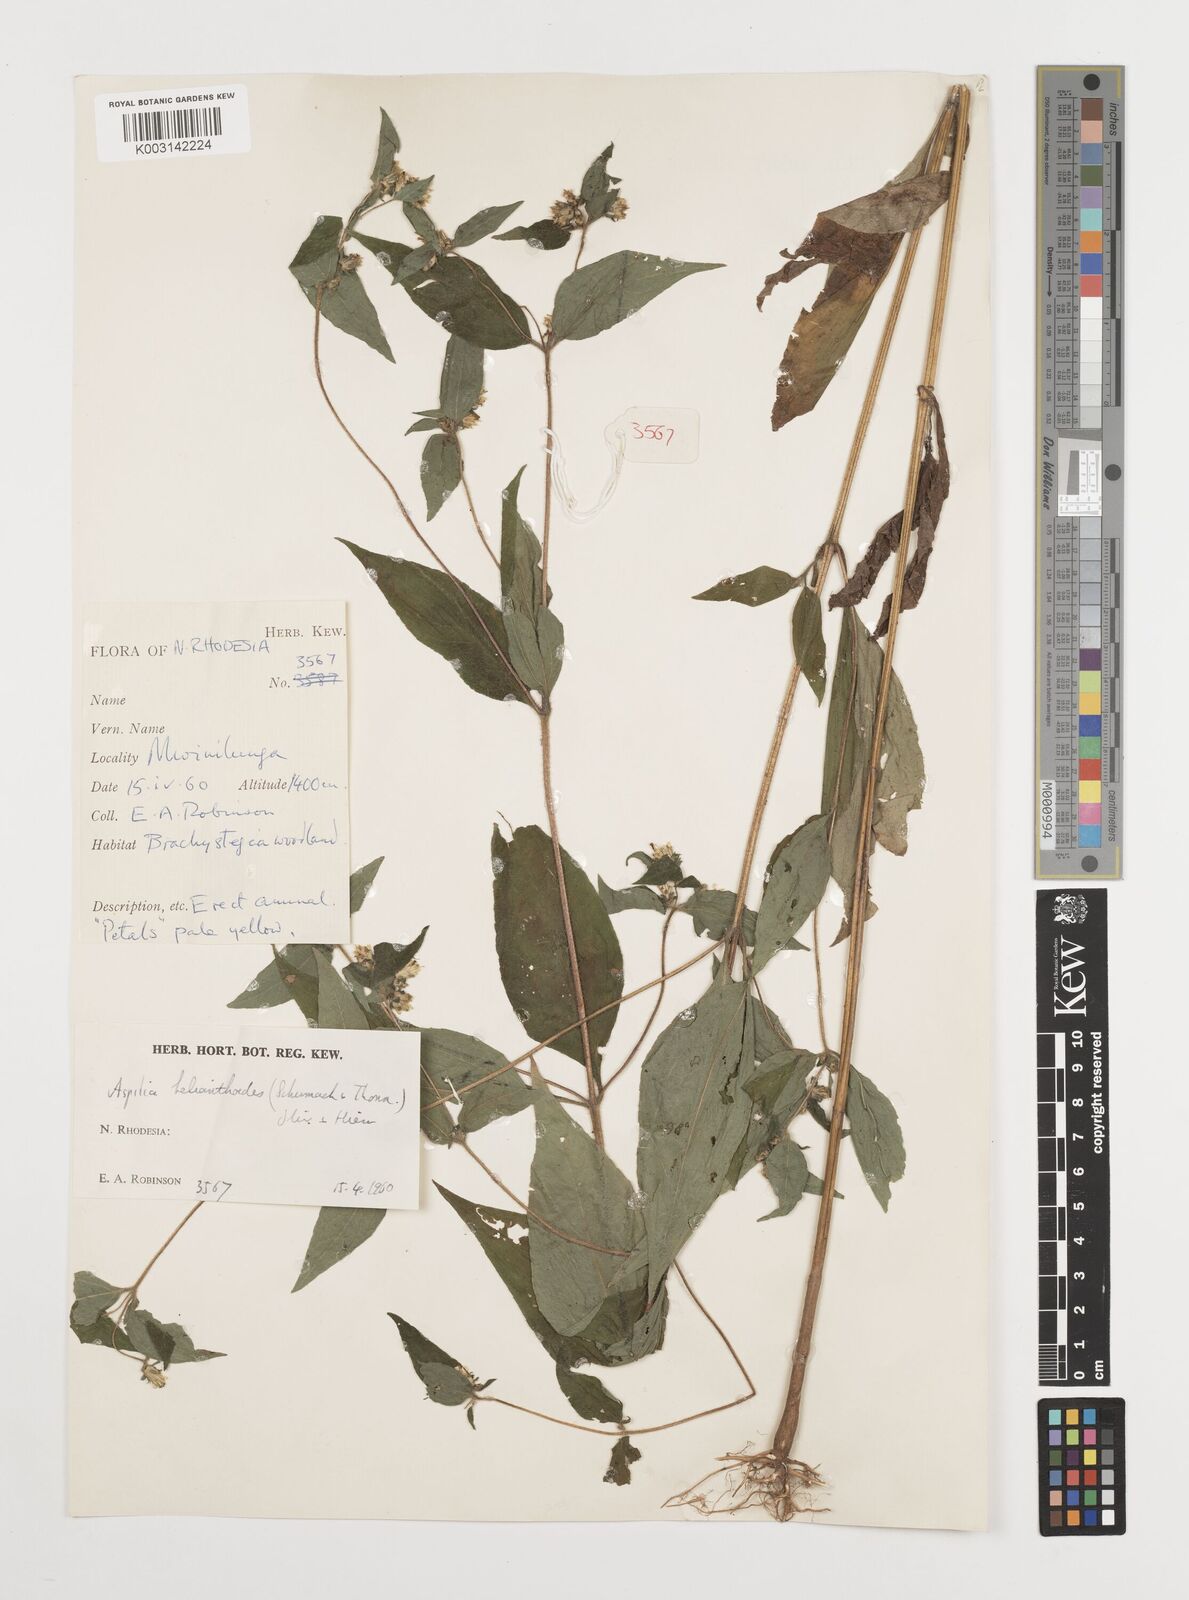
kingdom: Plantae
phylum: Tracheophyta
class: Magnoliopsida
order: Asterales
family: Asteraceae
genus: Aspilia
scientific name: Aspilia ciliata
